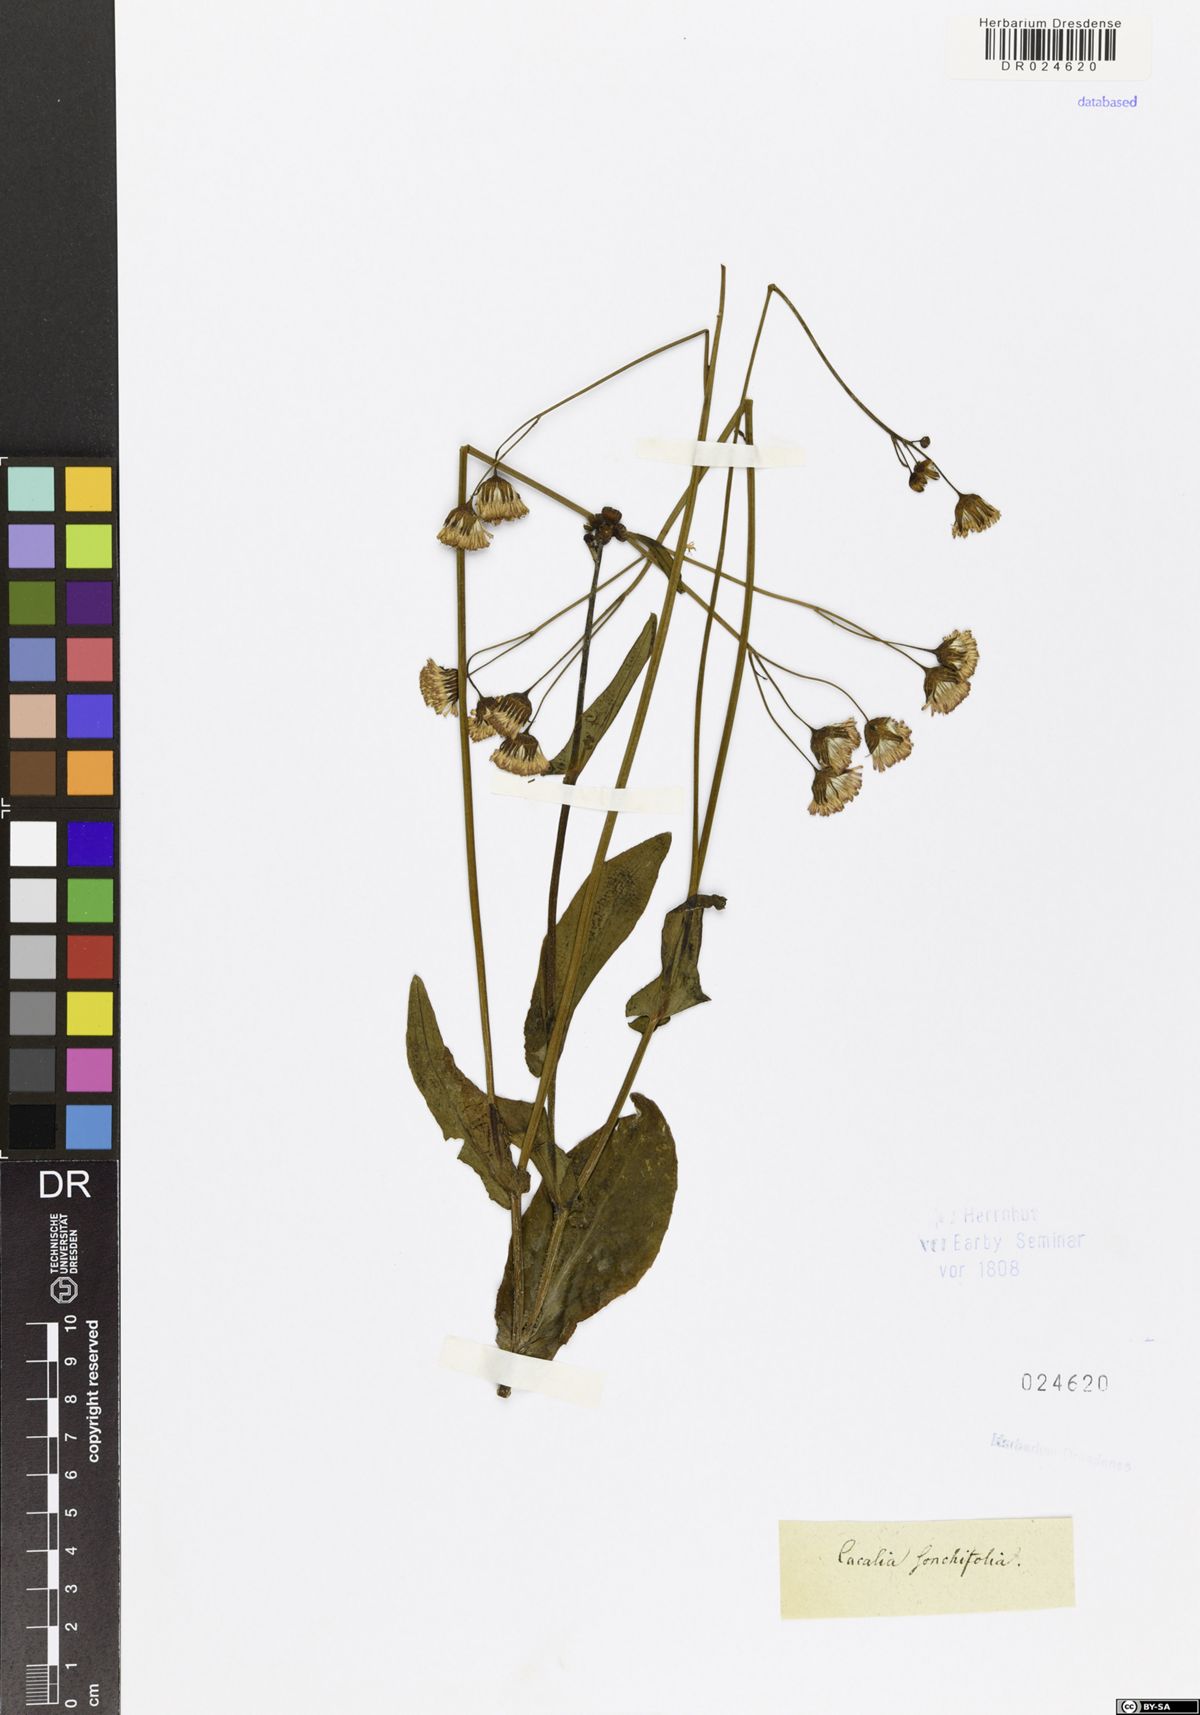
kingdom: Plantae
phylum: Tracheophyta
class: Magnoliopsida
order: Asterales
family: Asteraceae
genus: Emilia
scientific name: Emilia sonchifolia
